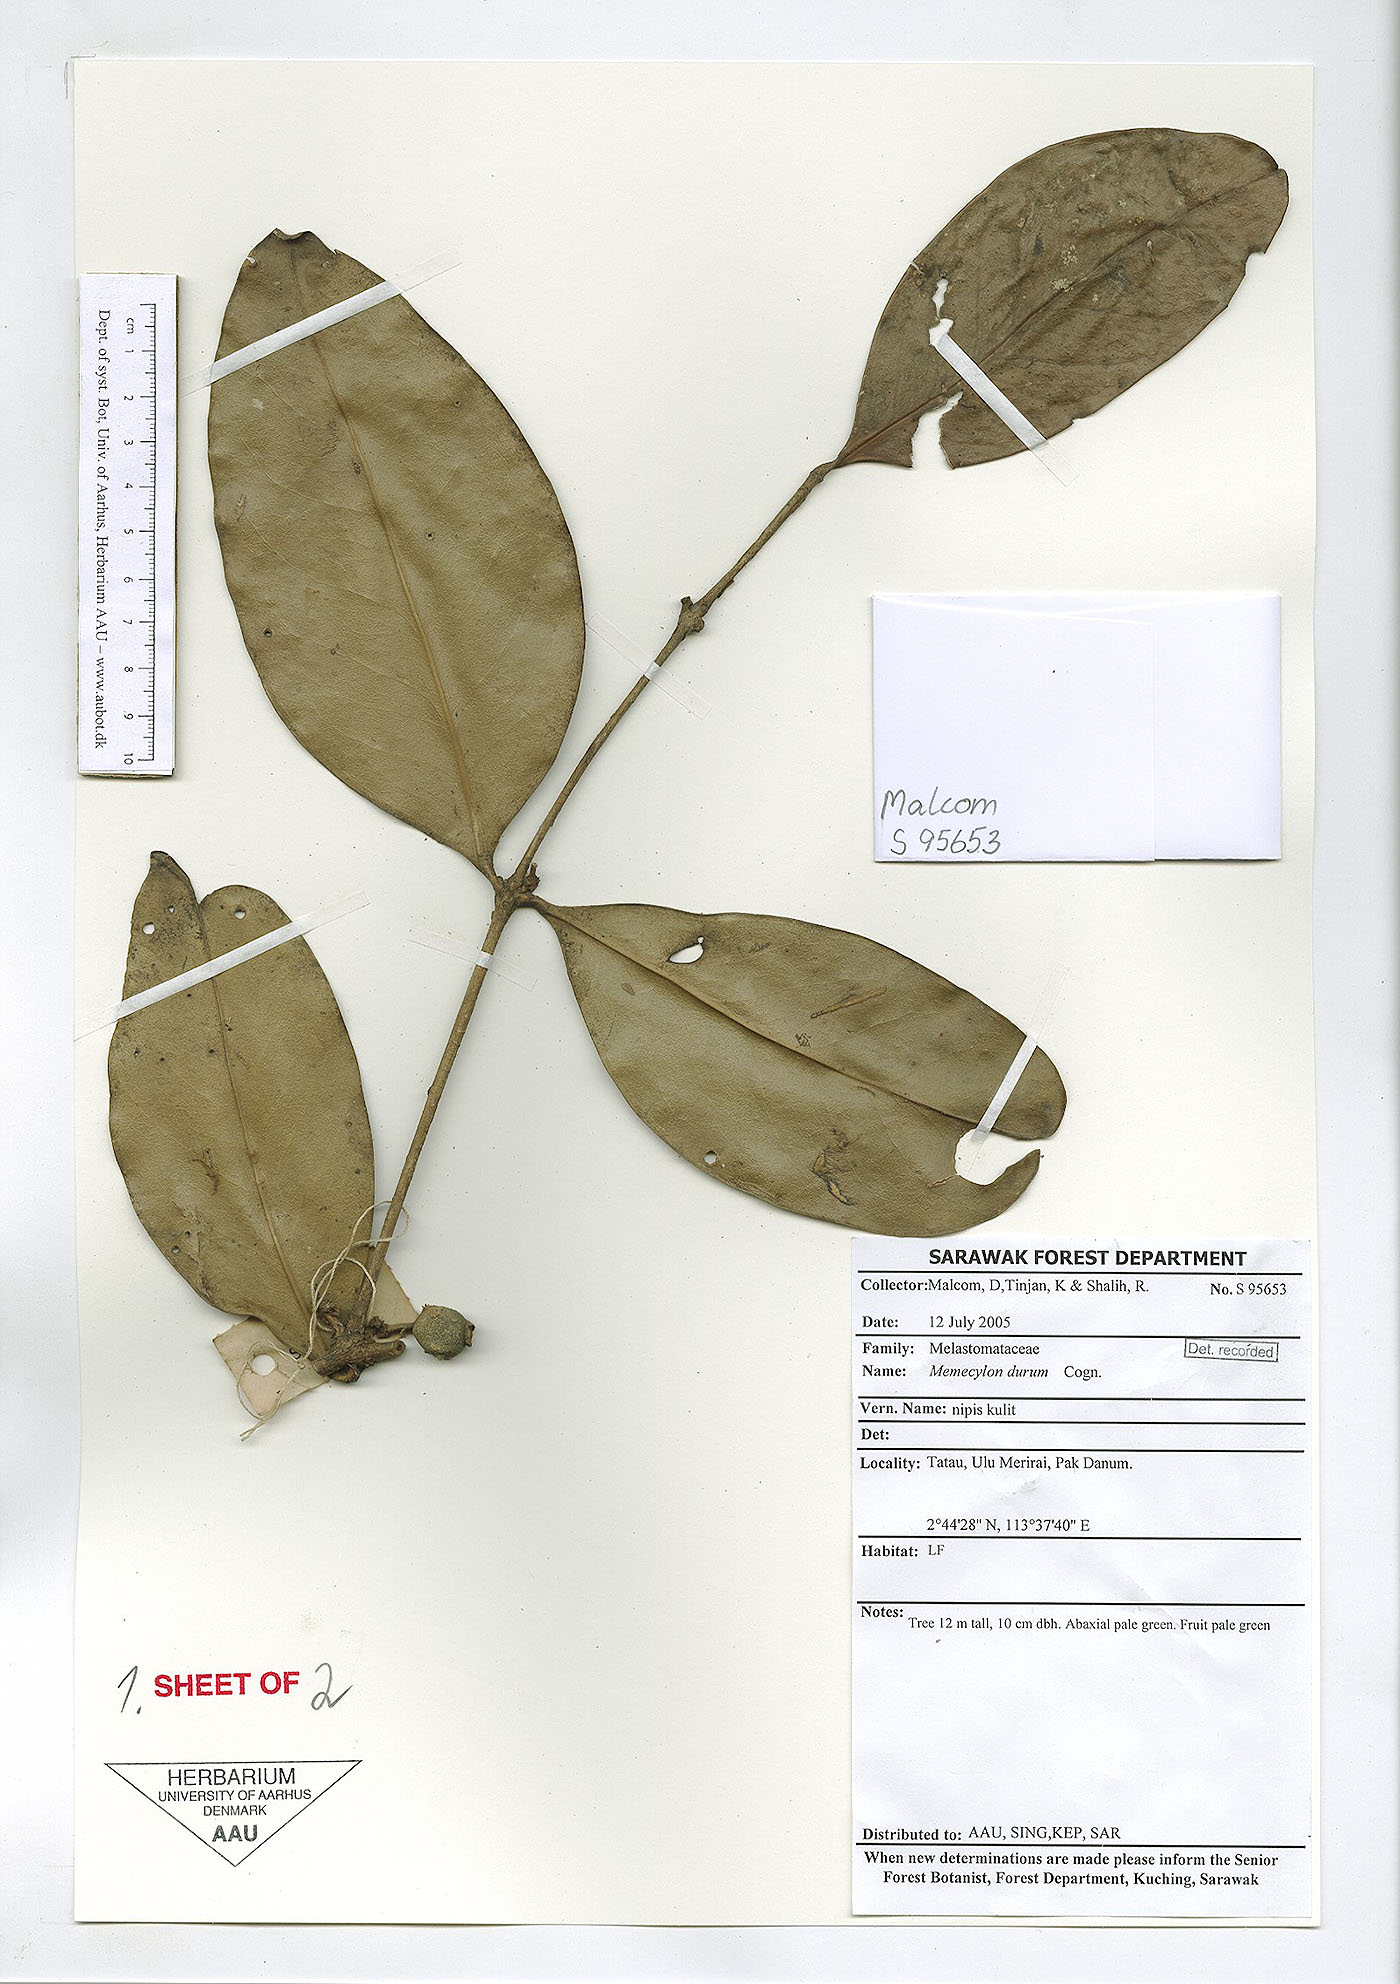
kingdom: Plantae
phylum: Tracheophyta
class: Magnoliopsida
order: Myrtales
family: Melastomataceae
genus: Memecylon
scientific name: Memecylon durum
